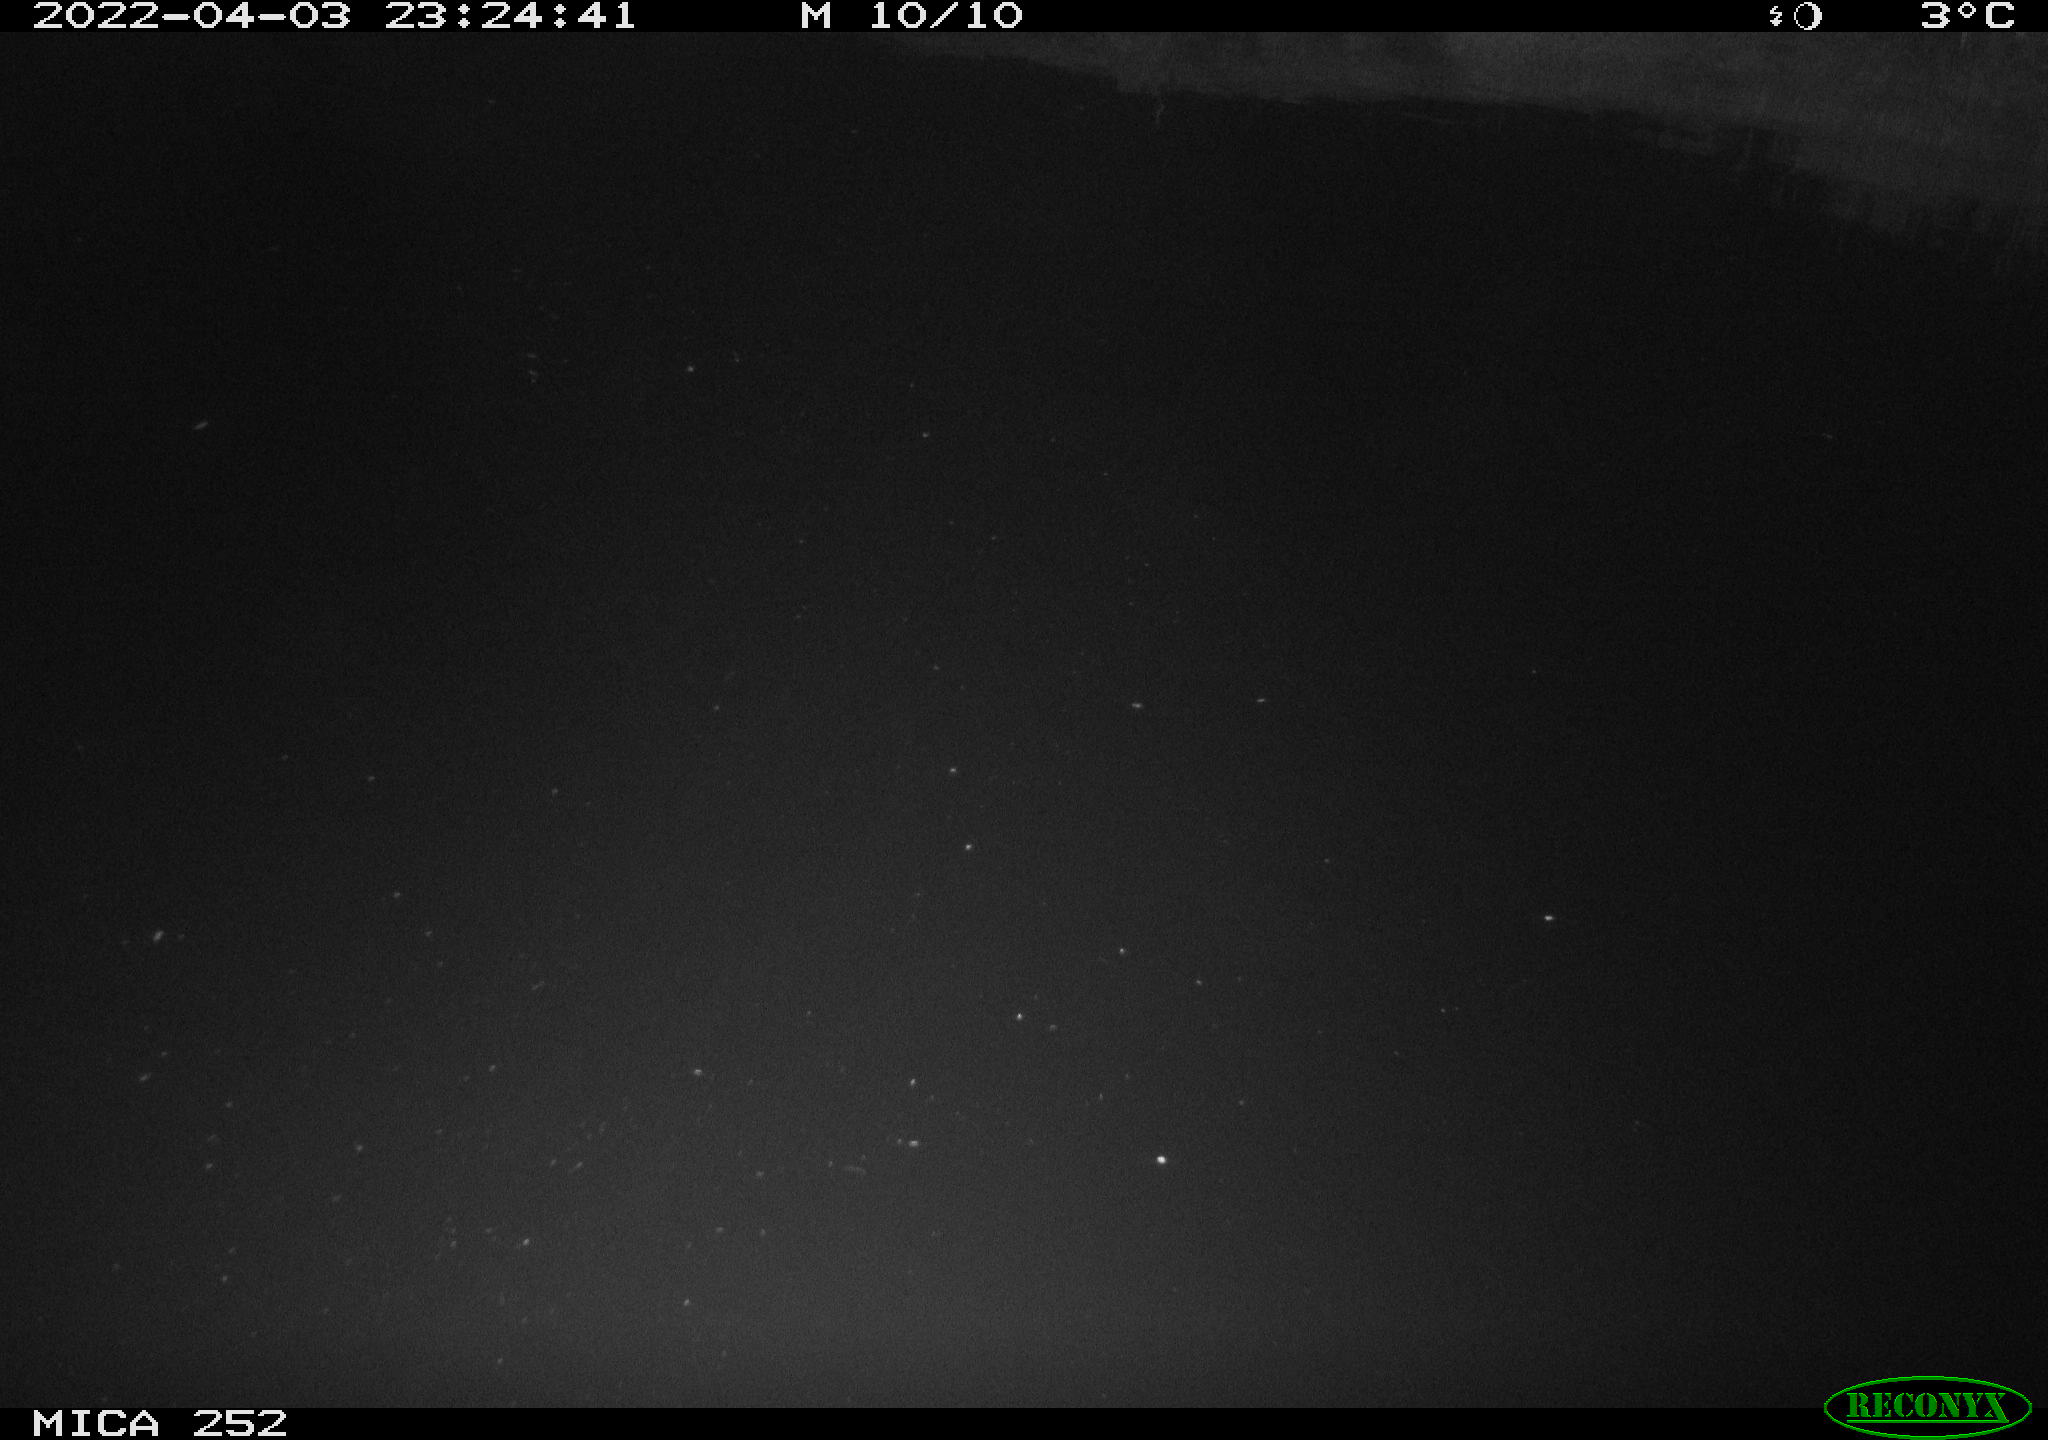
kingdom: Animalia
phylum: Chordata
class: Mammalia
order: Rodentia
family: Castoridae
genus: Castor
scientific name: Castor fiber
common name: Eurasian beaver
